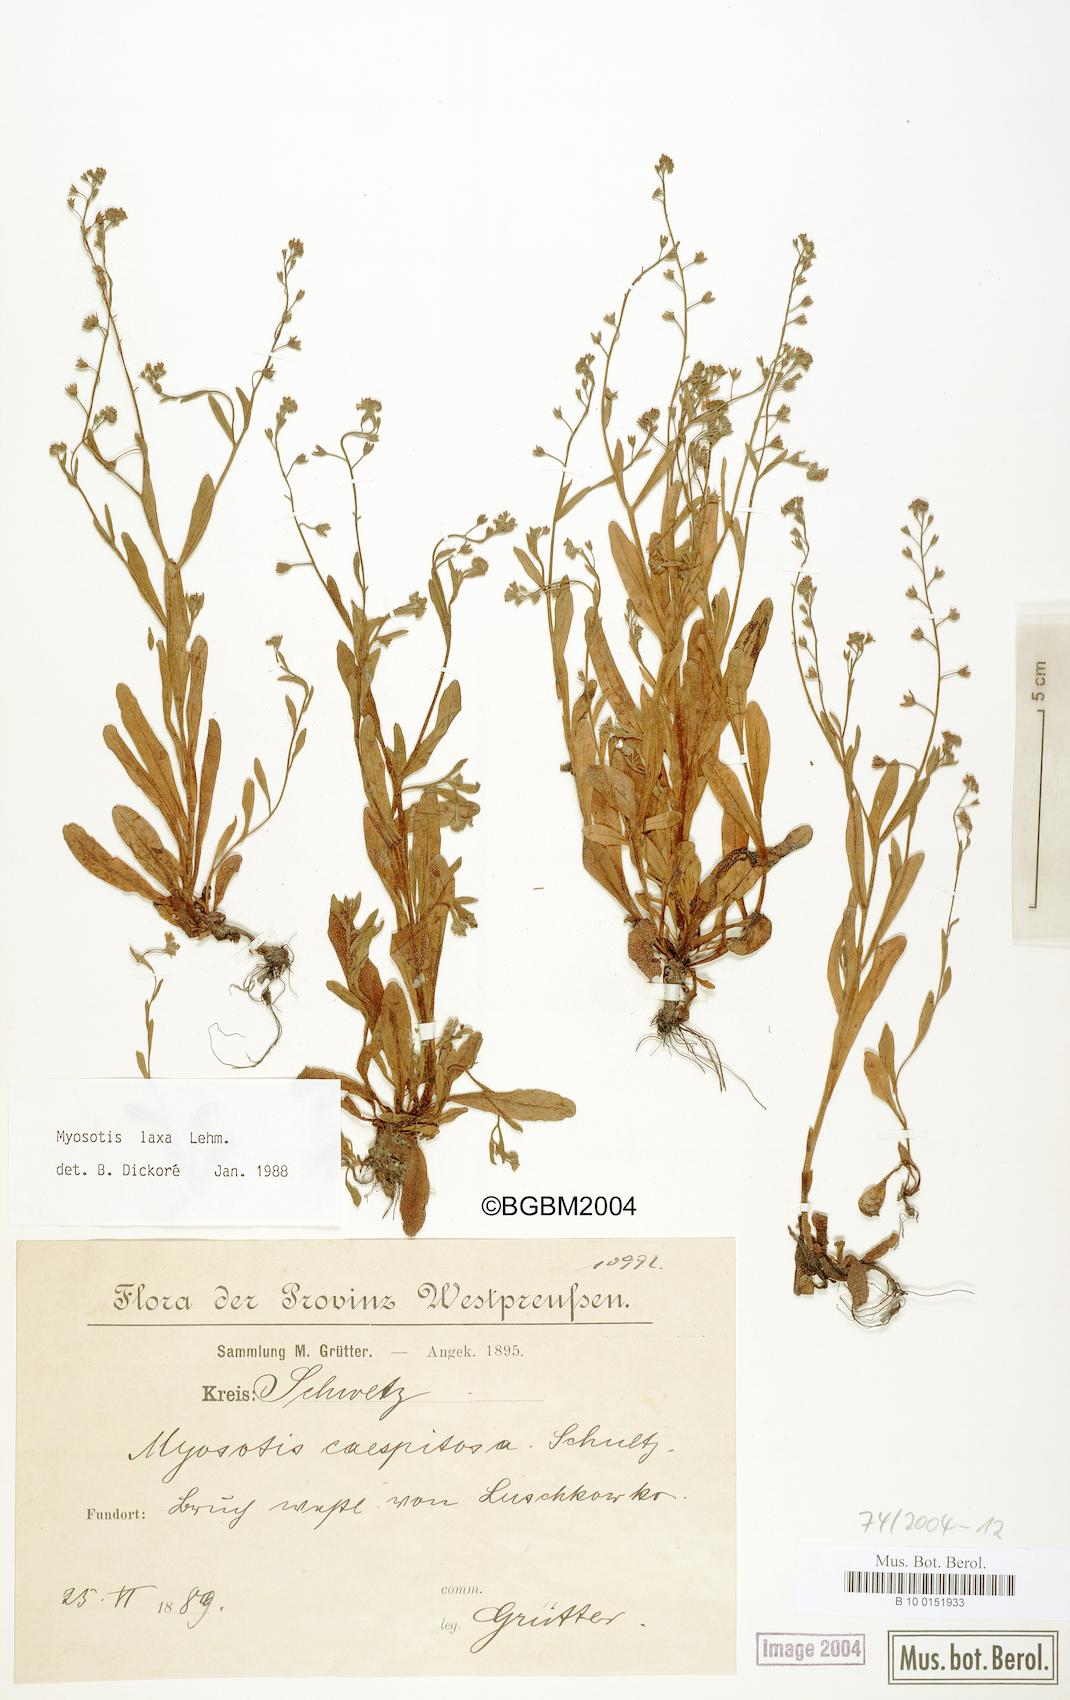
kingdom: Plantae
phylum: Tracheophyta
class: Magnoliopsida
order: Boraginales
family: Boraginaceae
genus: Myosotis
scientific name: Myosotis laxa
